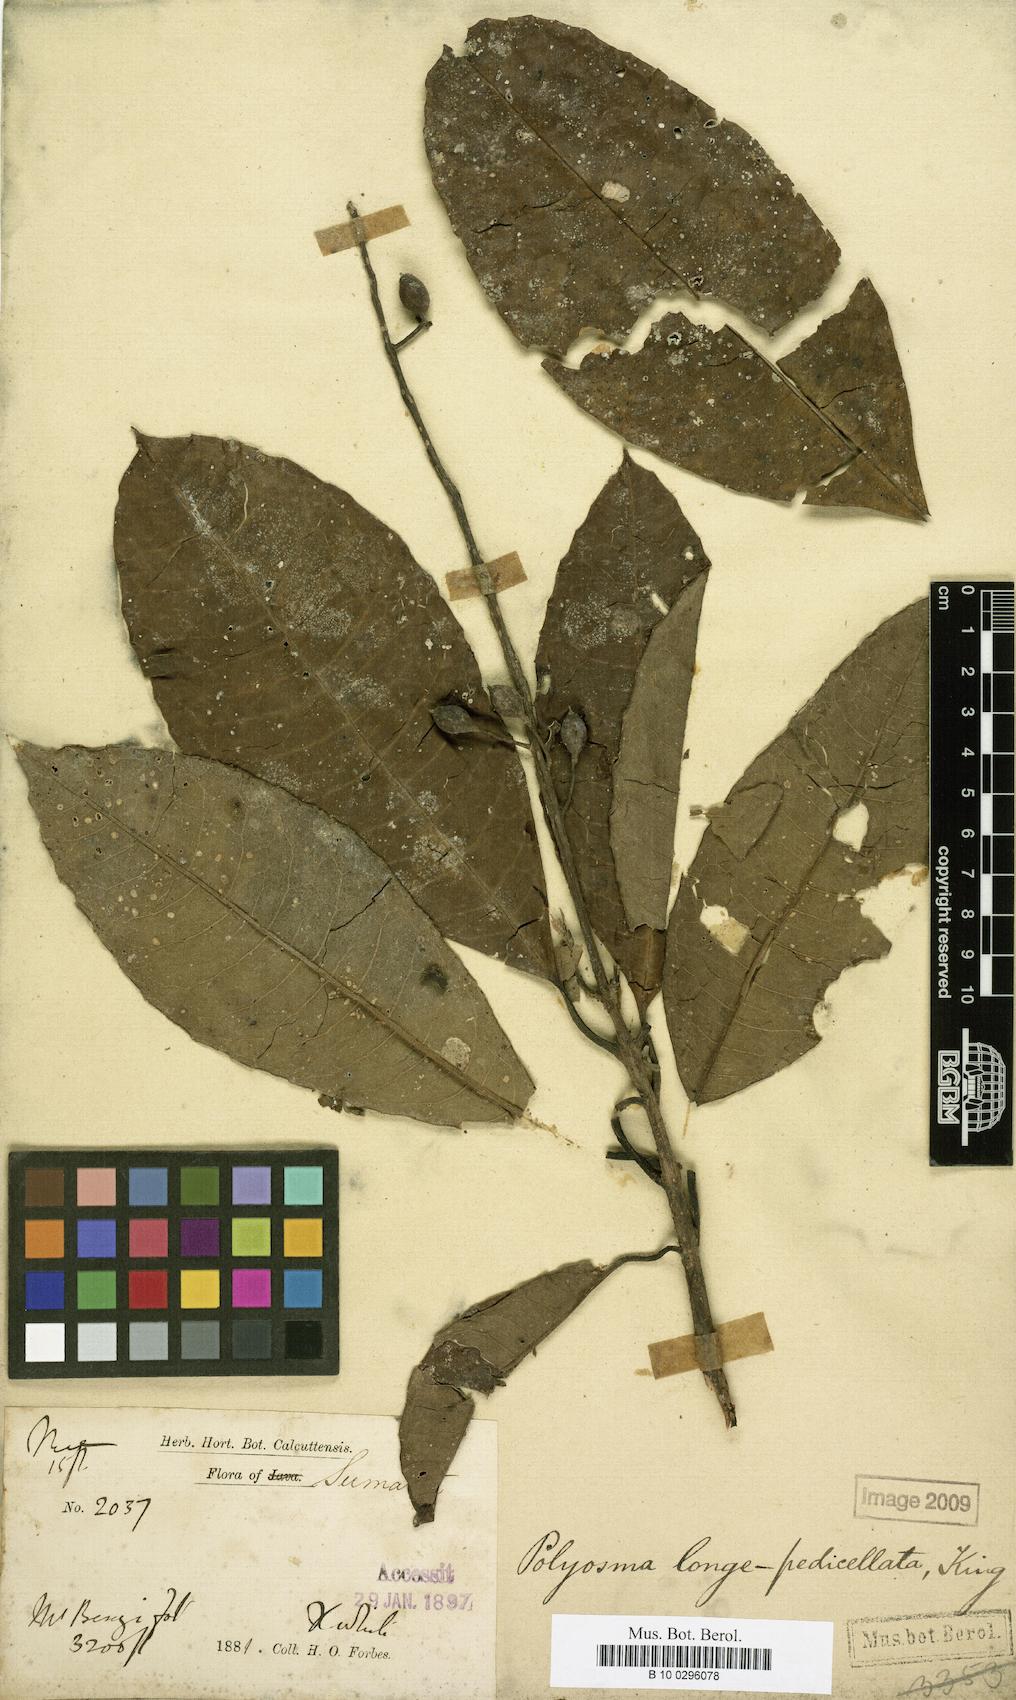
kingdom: Plantae
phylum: Tracheophyta
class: Magnoliopsida
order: Escalloniales
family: Escalloniaceae
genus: Polyosma
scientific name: Polyosma longepedicellata
